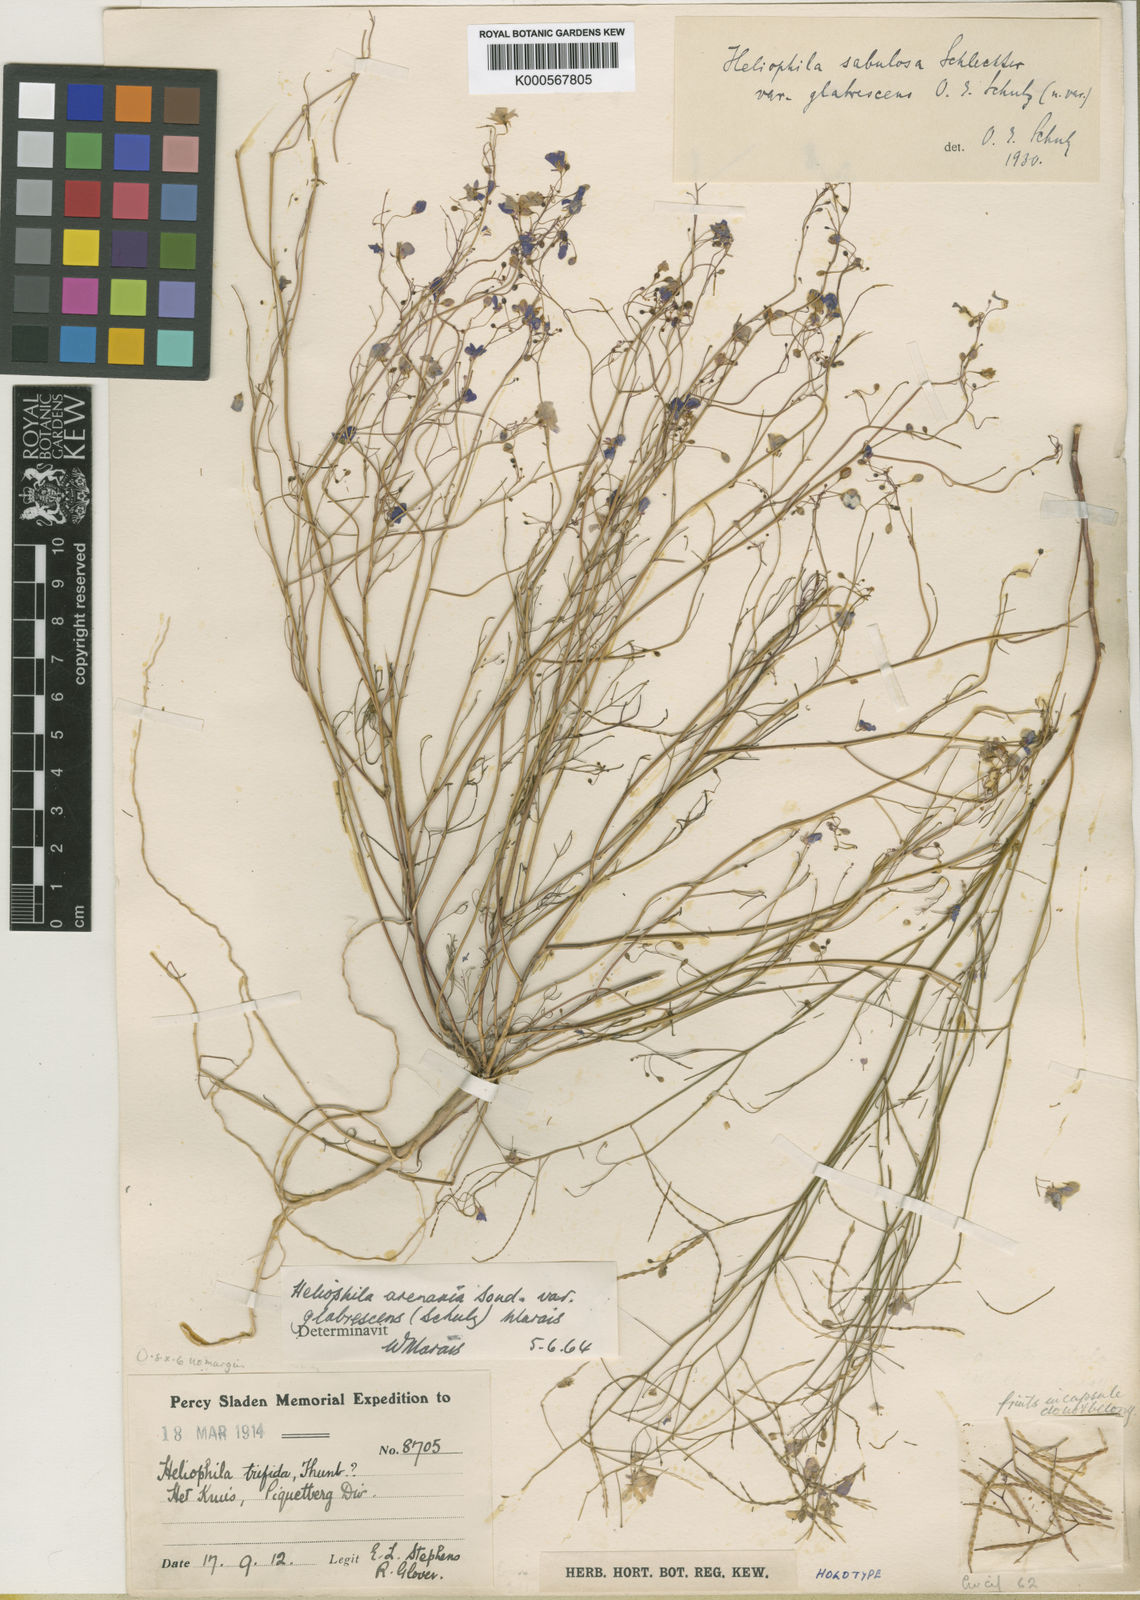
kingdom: Plantae
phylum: Tracheophyta
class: Magnoliopsida
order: Brassicales
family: Brassicaceae
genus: Heliophila
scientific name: Heliophila
